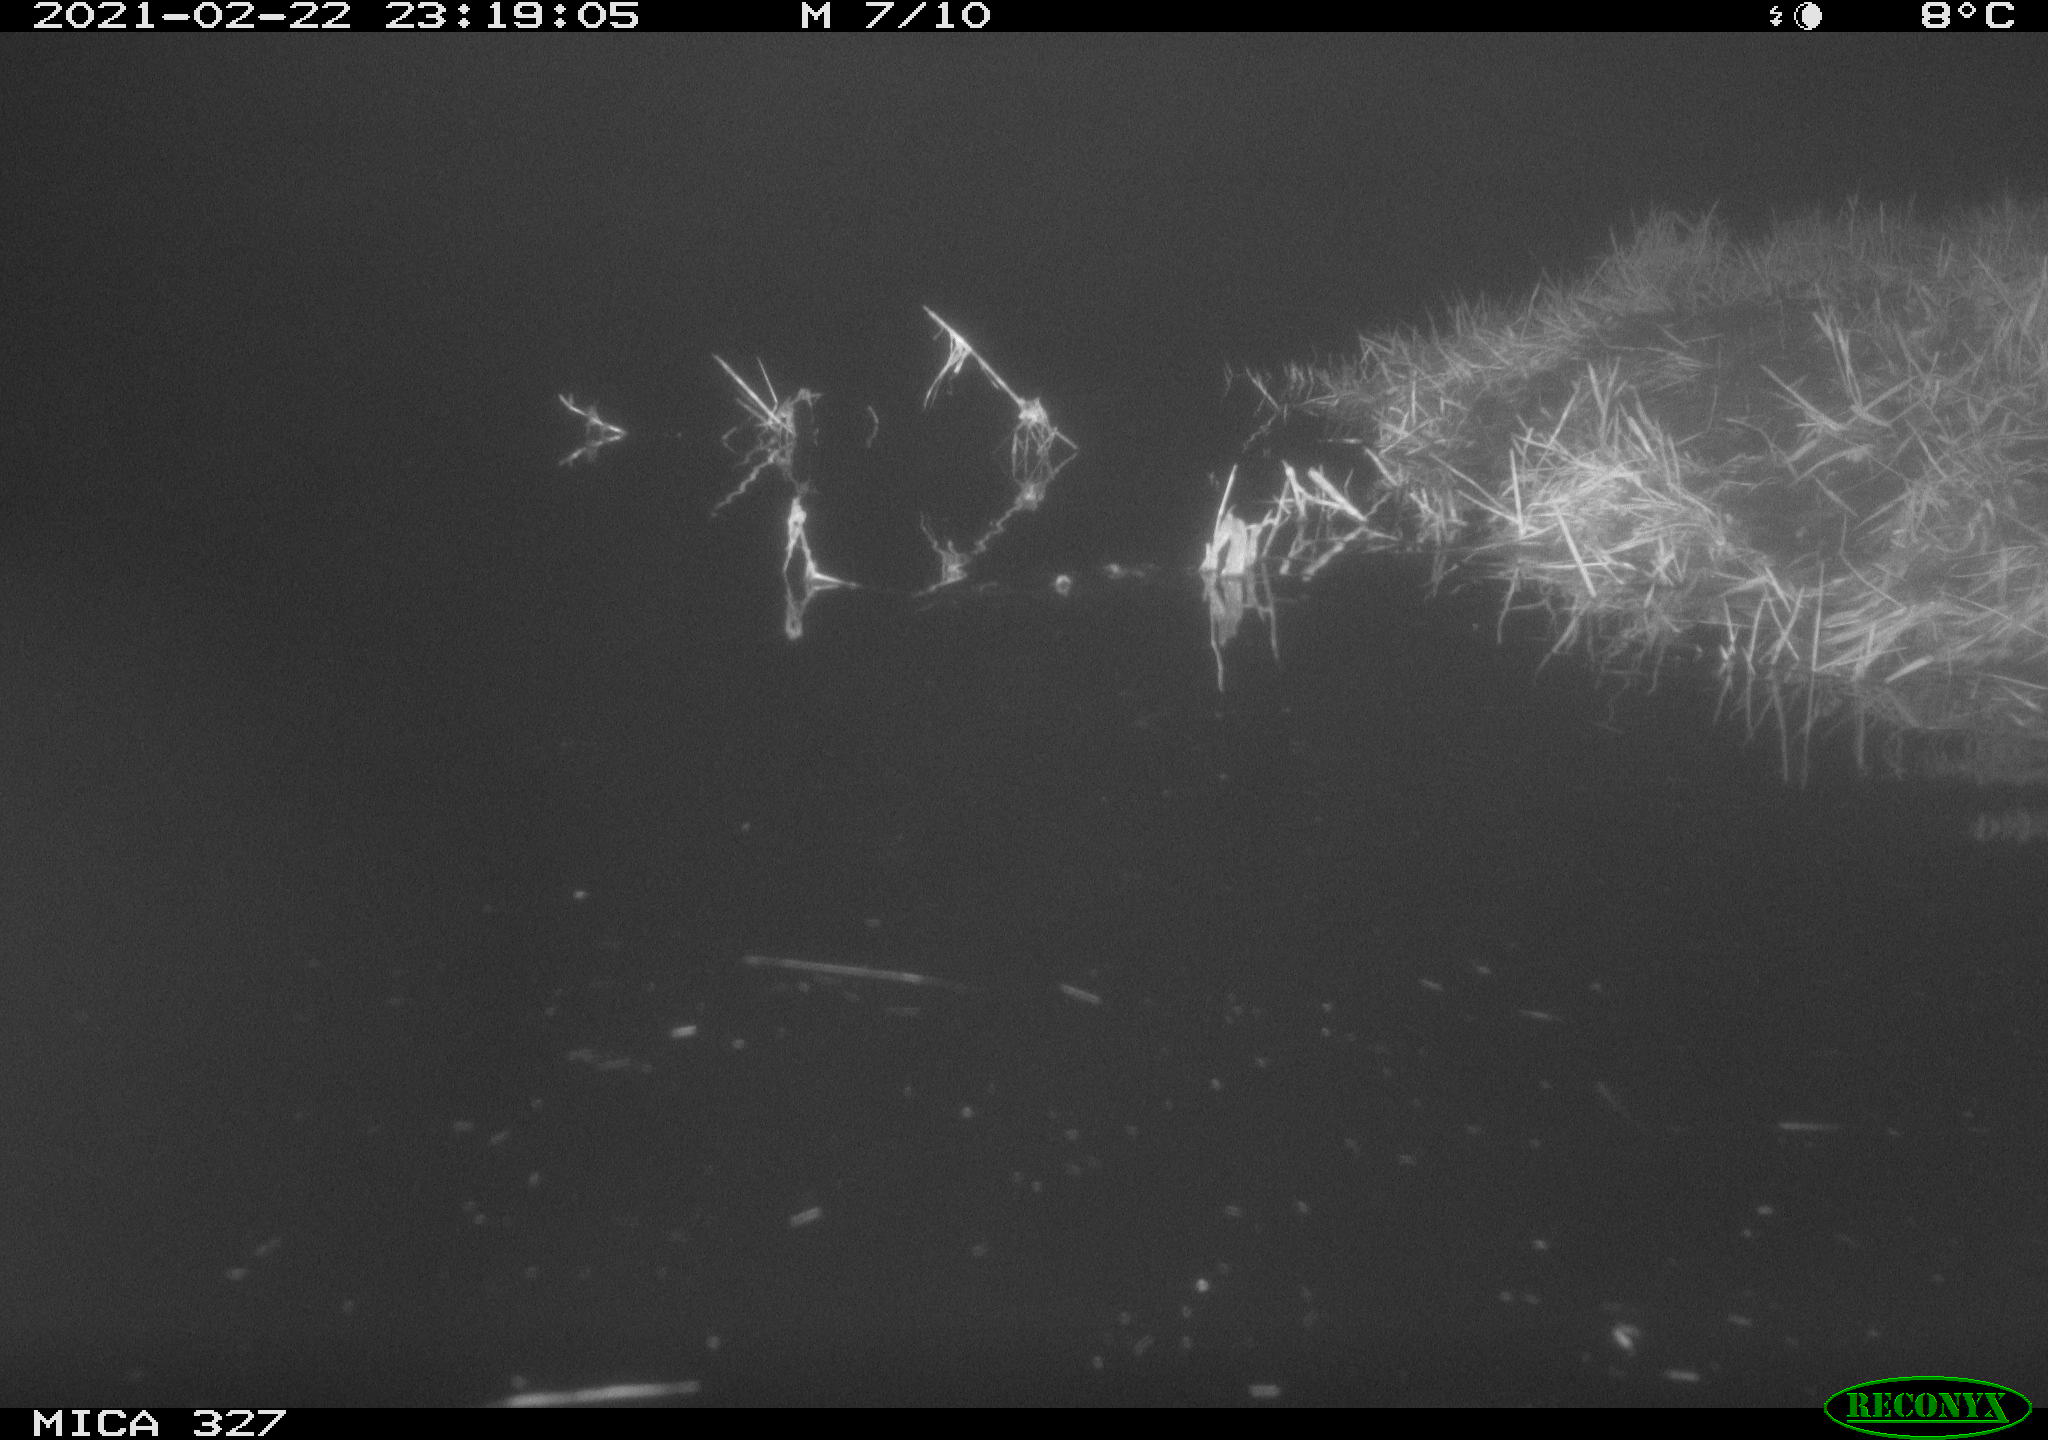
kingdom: Animalia
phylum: Chordata
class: Mammalia
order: Rodentia
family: Cricetidae
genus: Ondatra
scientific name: Ondatra zibethicus
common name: Muskrat
